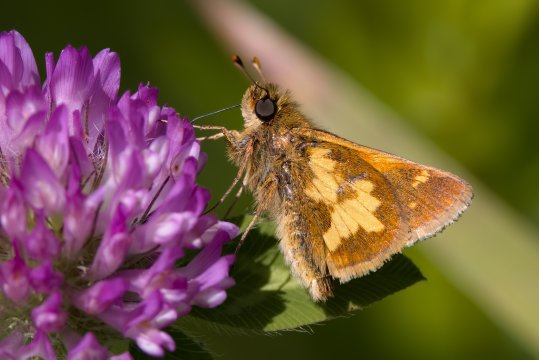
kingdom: Animalia
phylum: Arthropoda
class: Insecta
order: Lepidoptera
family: Hesperiidae
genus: Polites
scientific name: Polites coras
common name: Peck's Skipper
